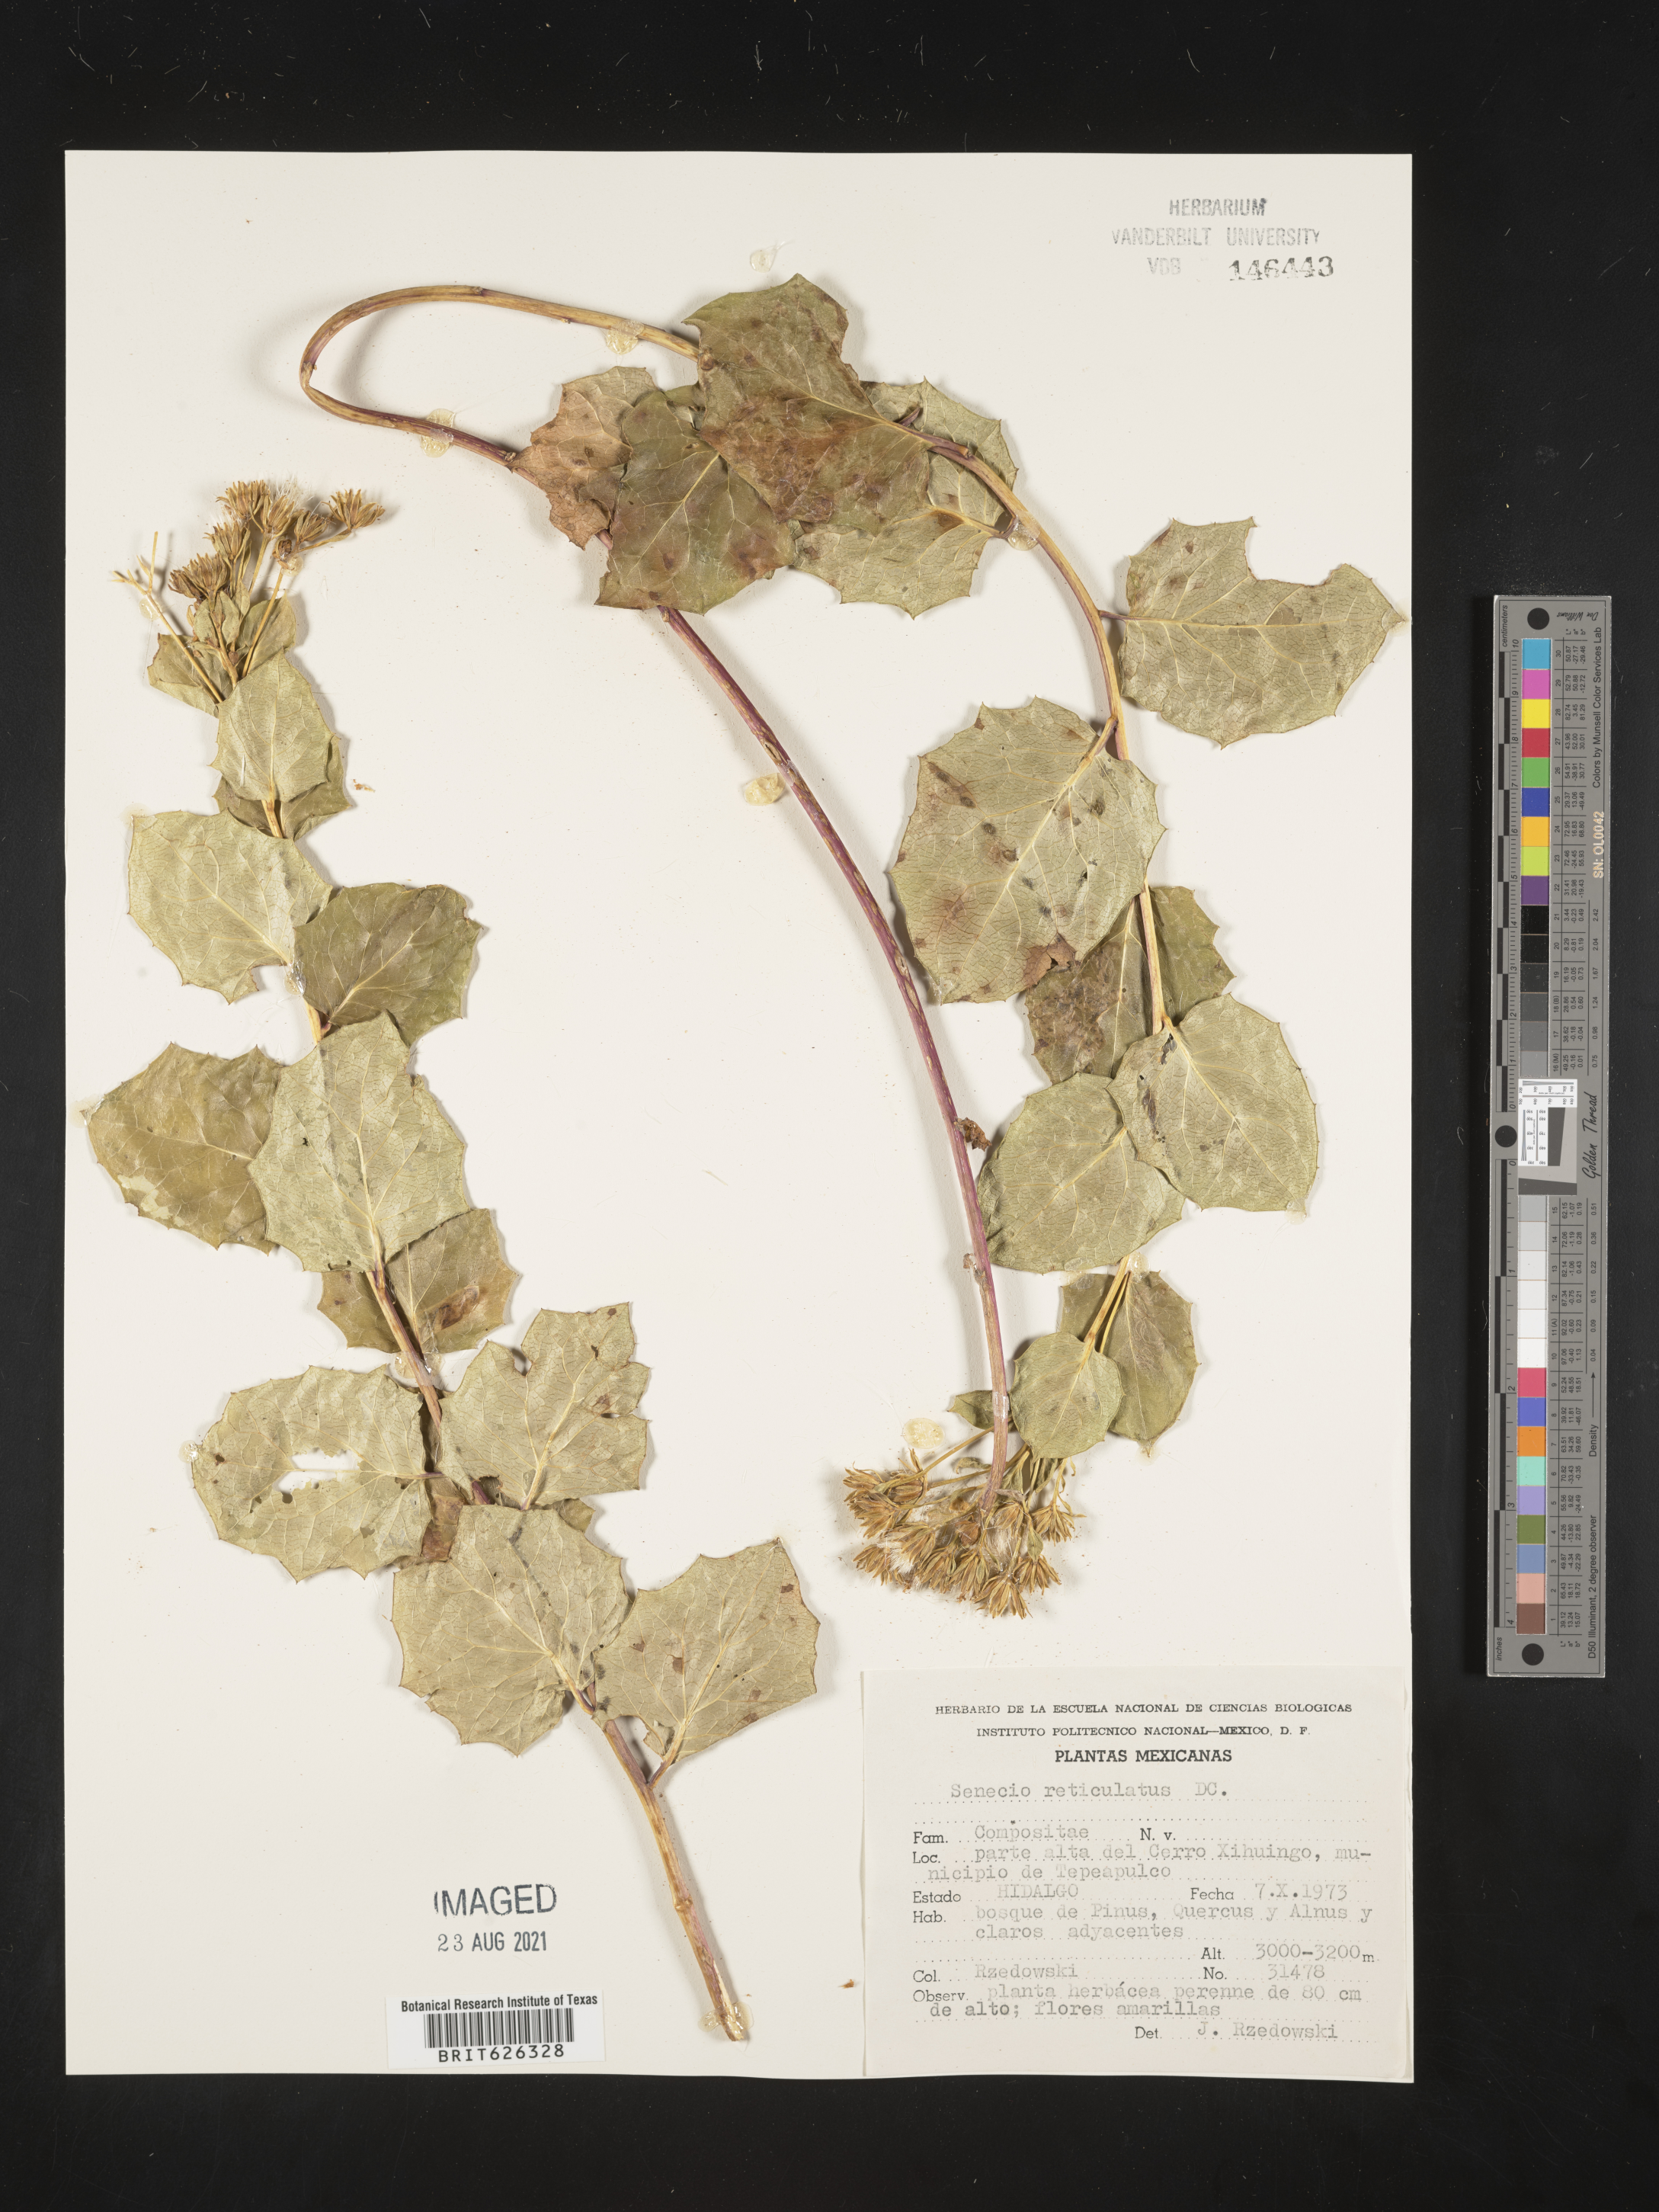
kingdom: Plantae
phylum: Tracheophyta
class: Magnoliopsida
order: Asterales
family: Asteraceae
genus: Senecio
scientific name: Senecio
